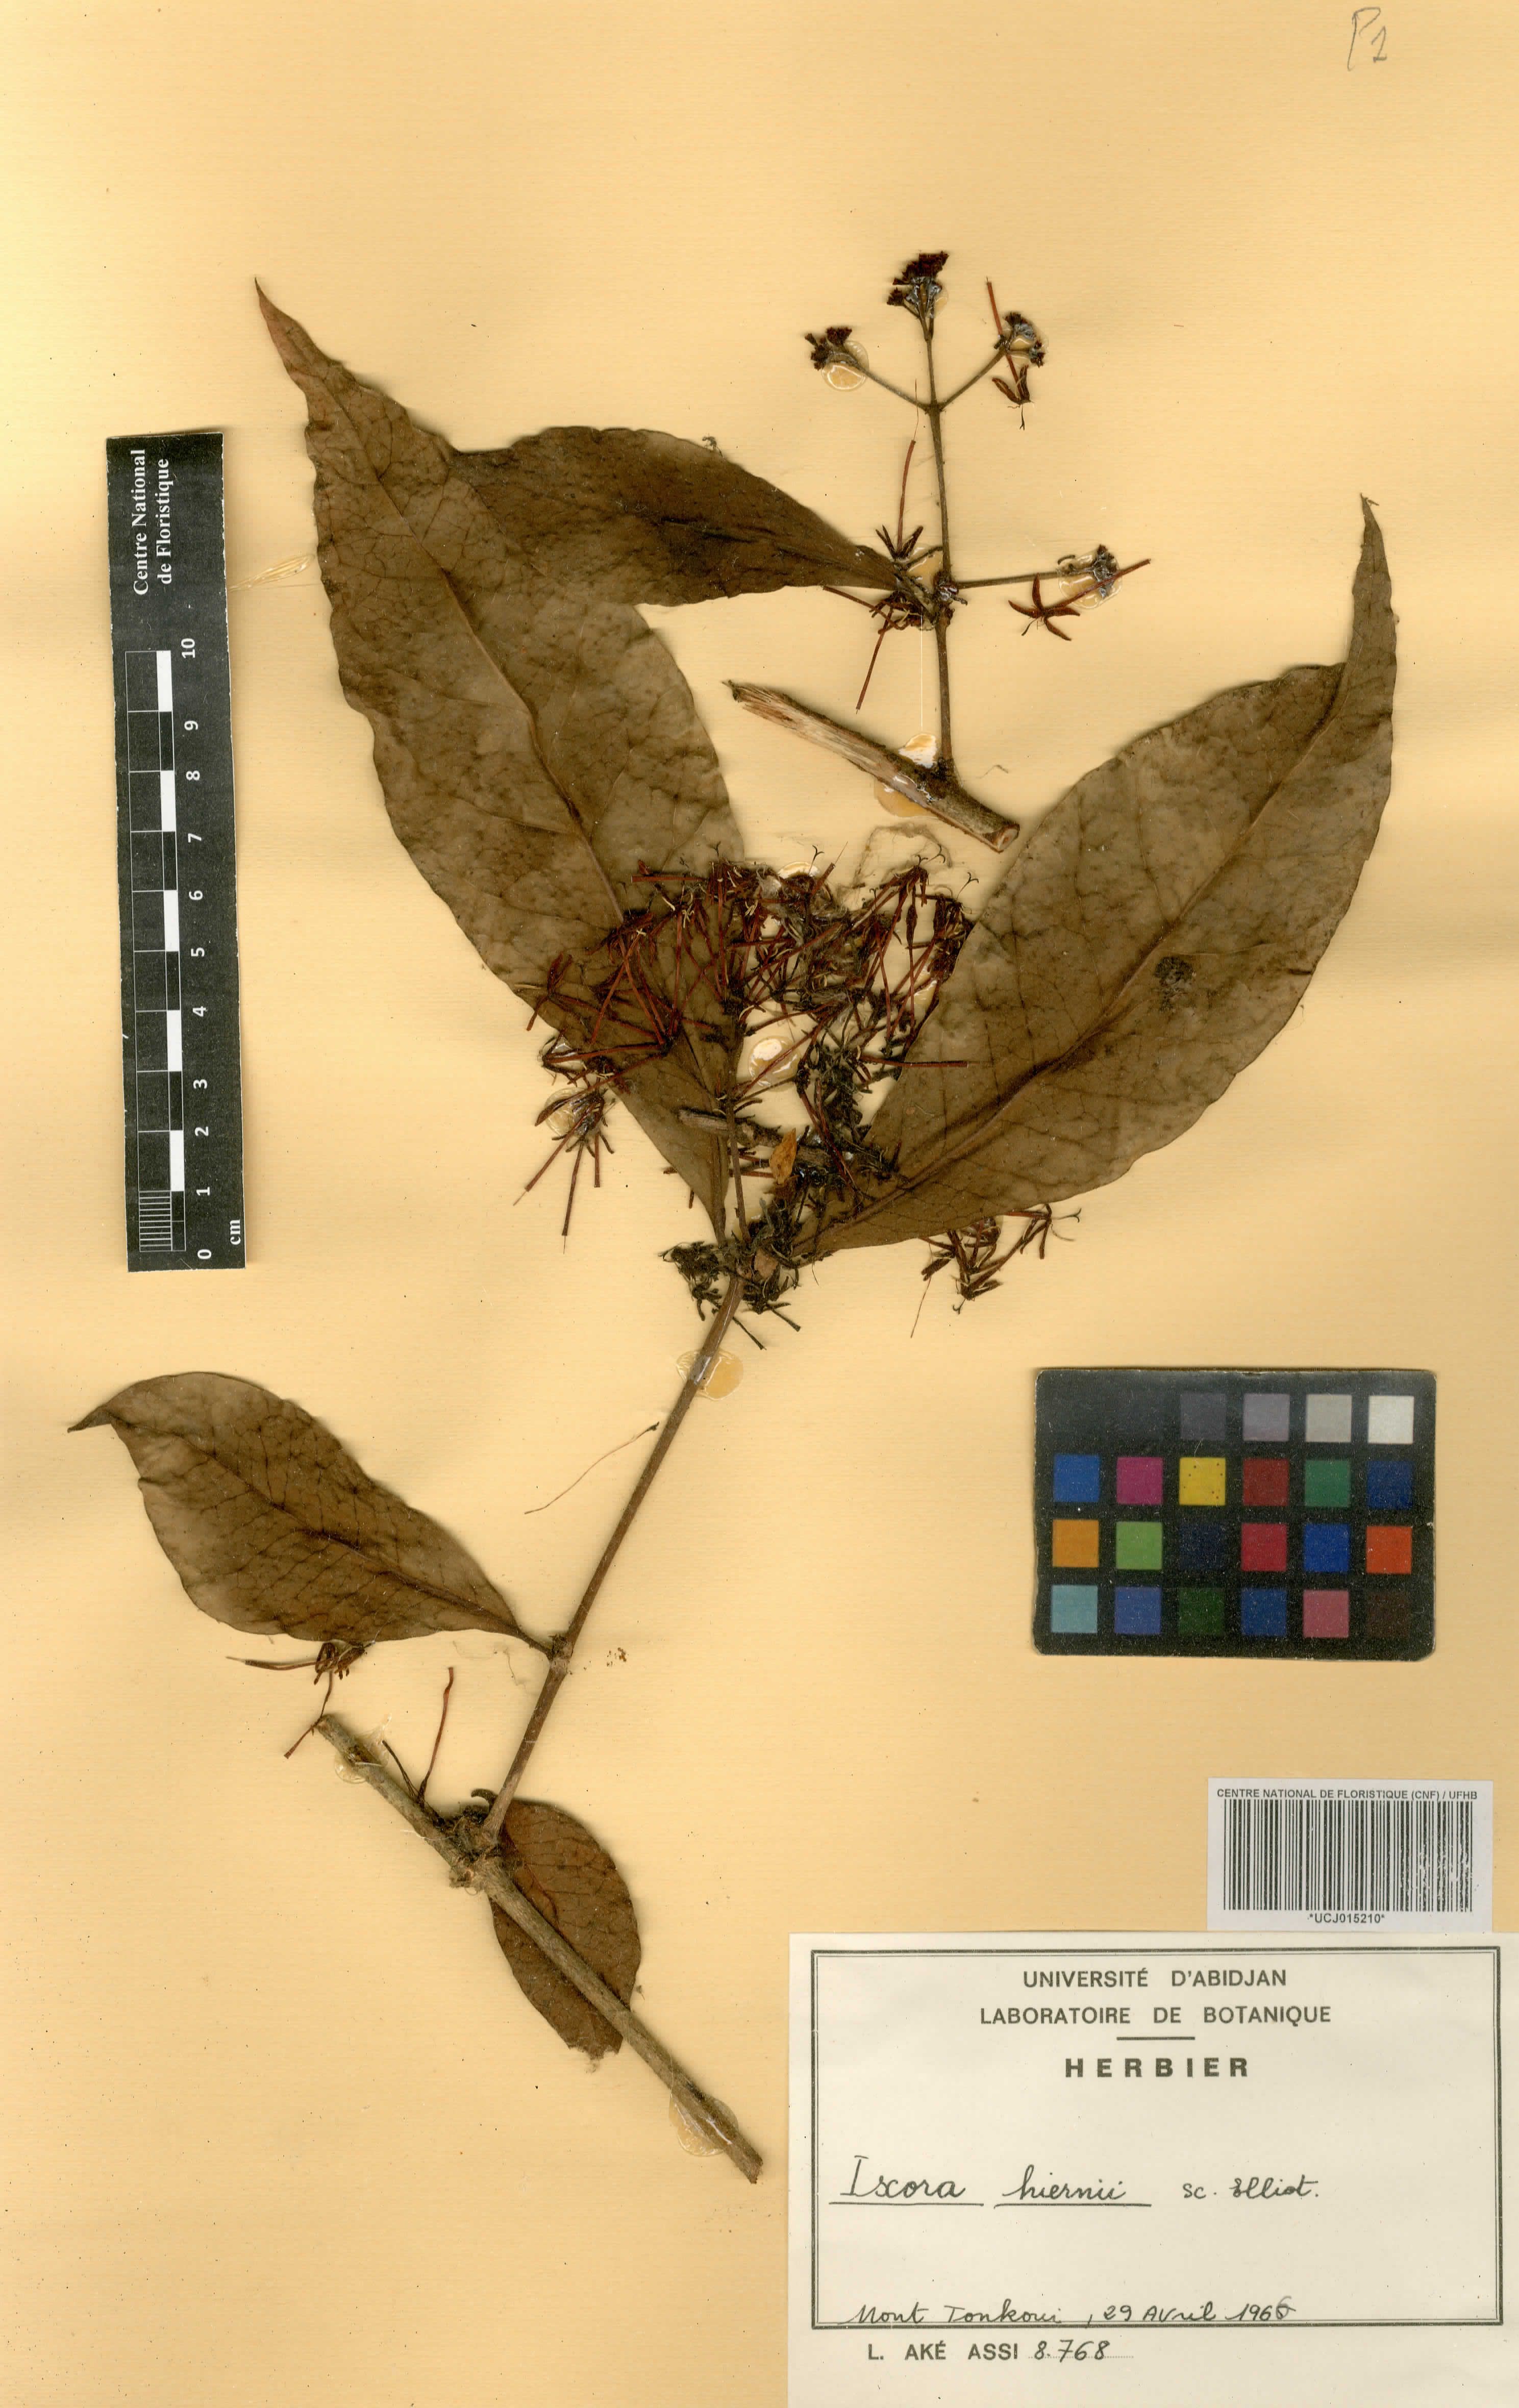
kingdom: Plantae
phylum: Tracheophyta
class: Magnoliopsida
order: Gentianales
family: Rubiaceae
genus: Ixora
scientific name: Ixora hiernii
